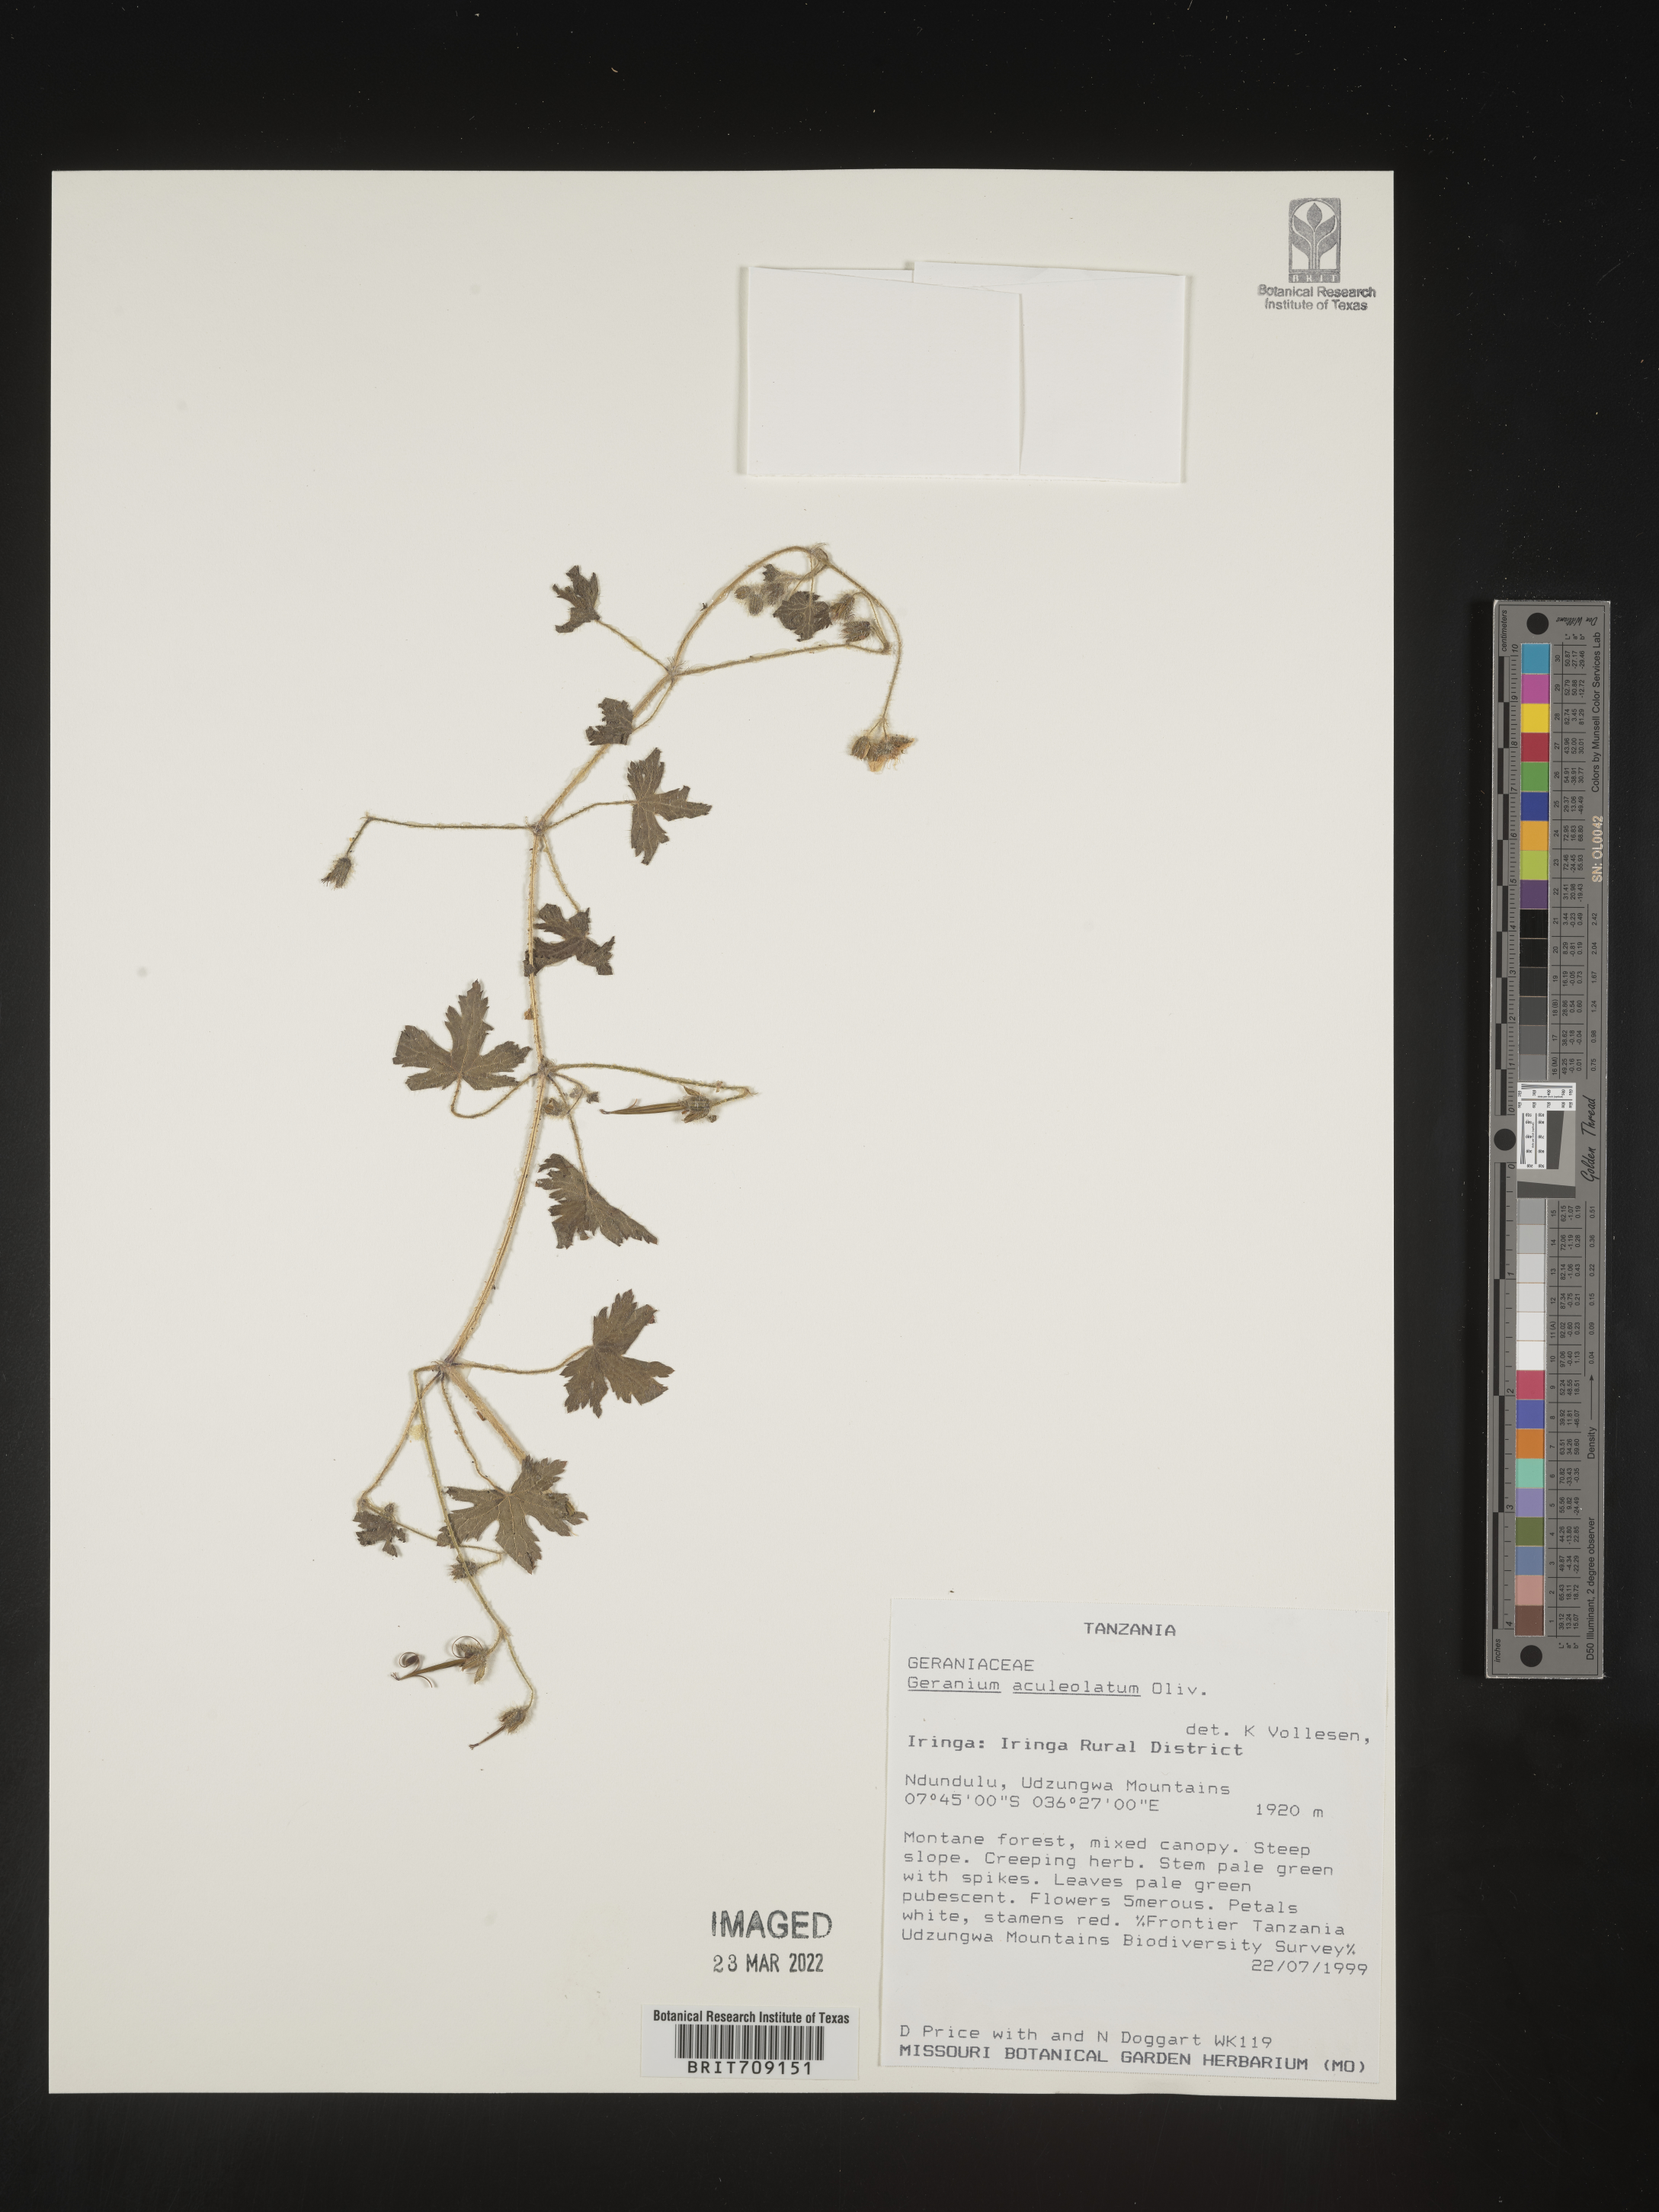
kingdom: Plantae
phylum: Tracheophyta
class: Magnoliopsida
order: Geraniales
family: Geraniaceae
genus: Geranium
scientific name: Geranium
